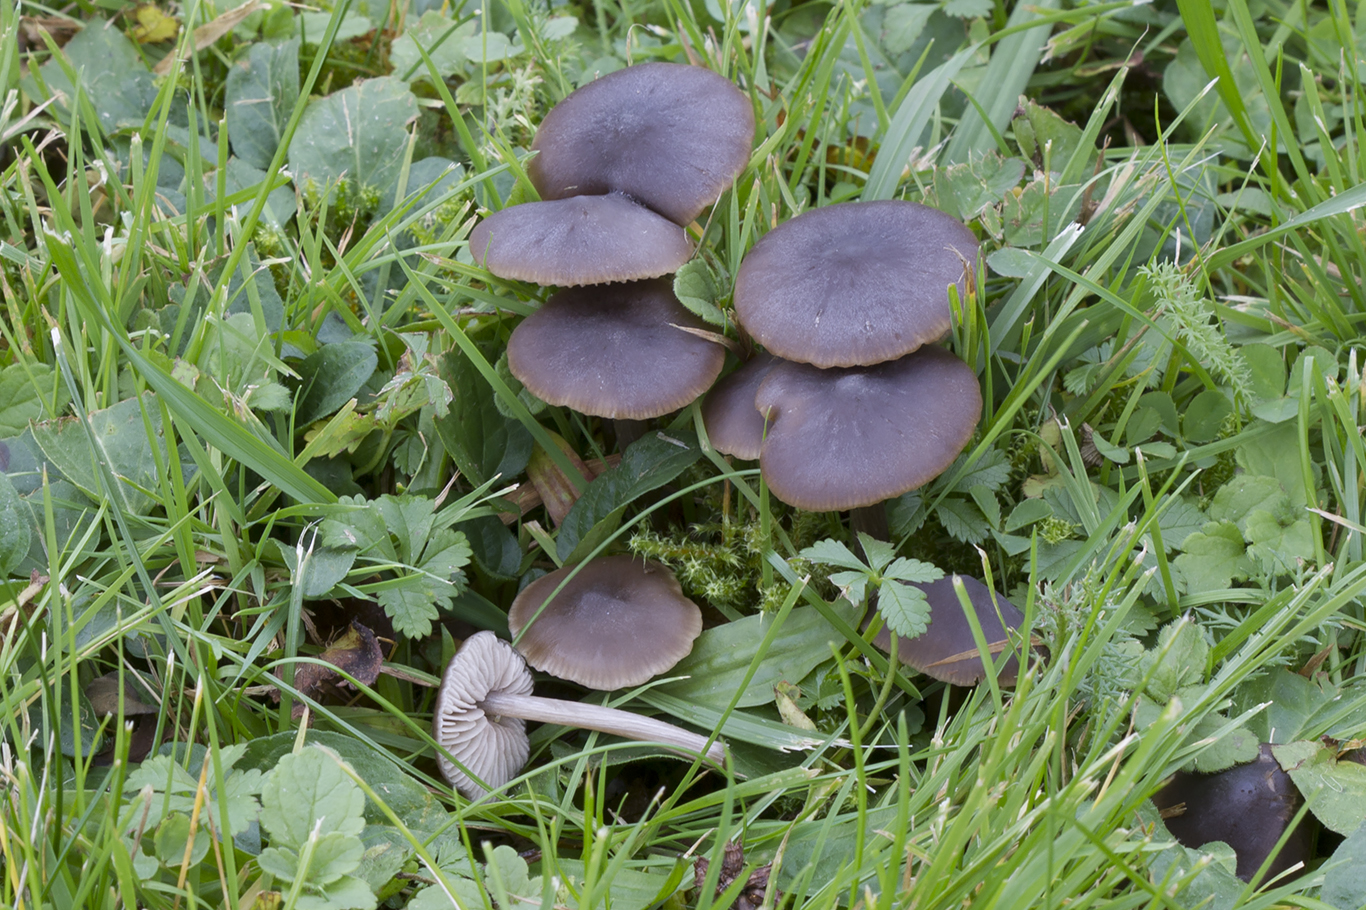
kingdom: Fungi
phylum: Basidiomycota
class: Agaricomycetes
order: Agaricales
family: Entolomataceae
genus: Entoloma
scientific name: Entoloma sericeum
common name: silkeglinsende rødblad
